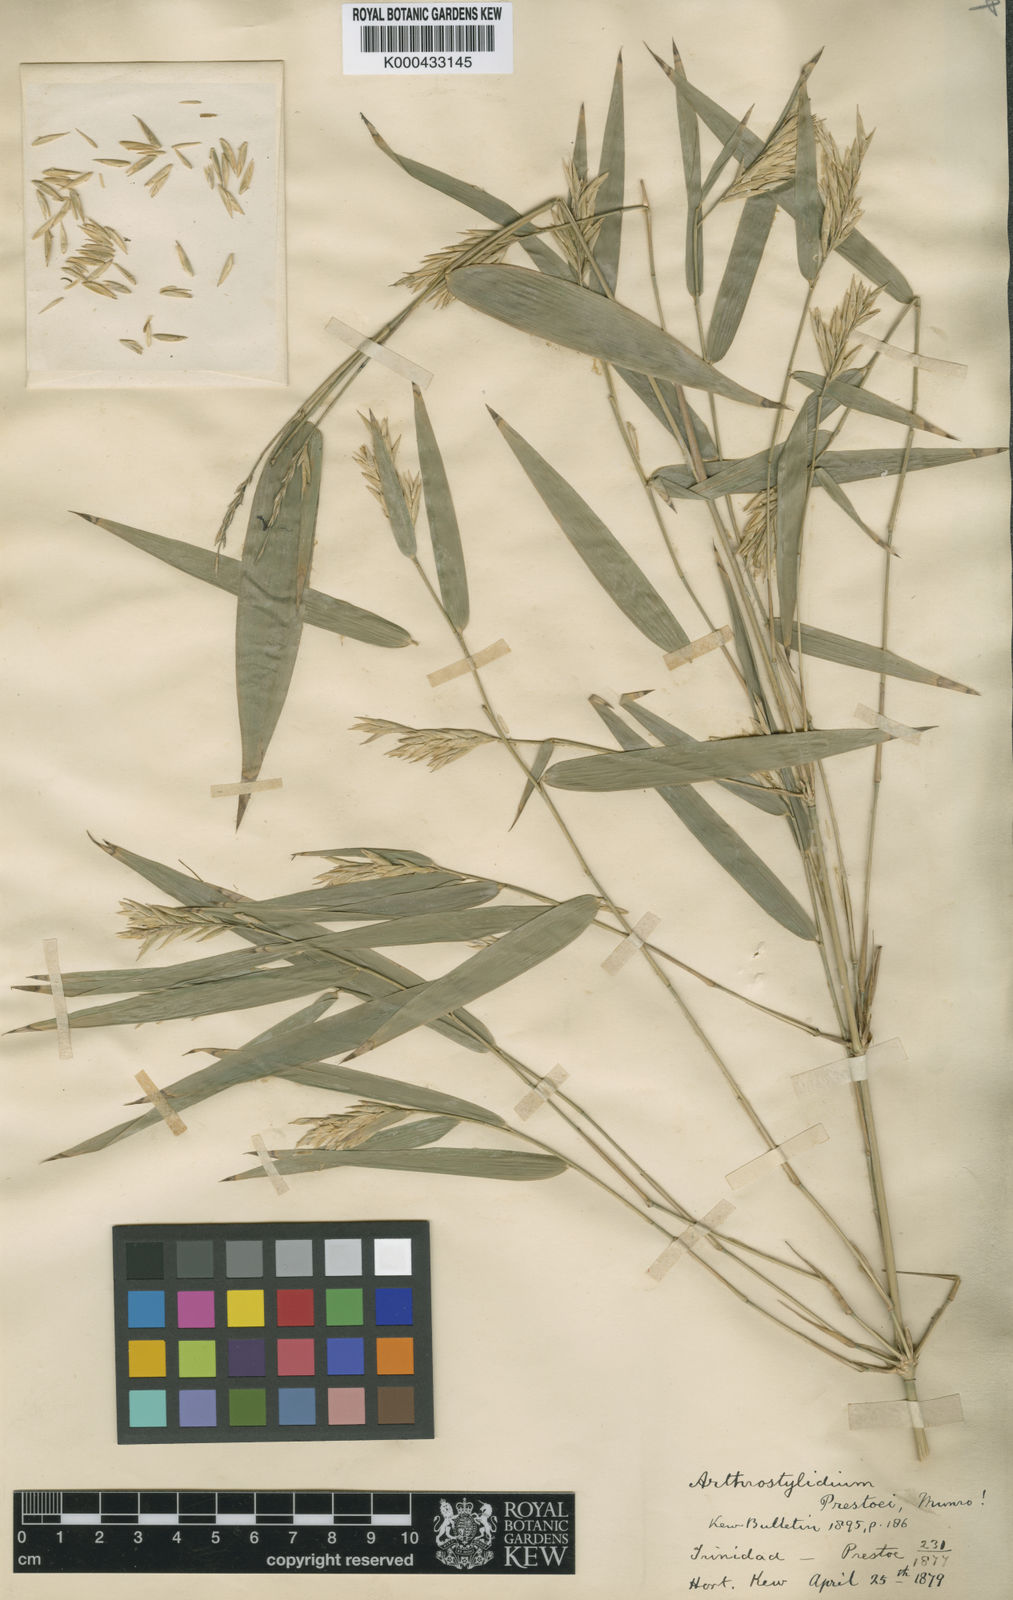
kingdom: Plantae
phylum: Tracheophyta
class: Liliopsida
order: Poales
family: Poaceae
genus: Rhipidocladum
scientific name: Rhipidocladum prestoei
